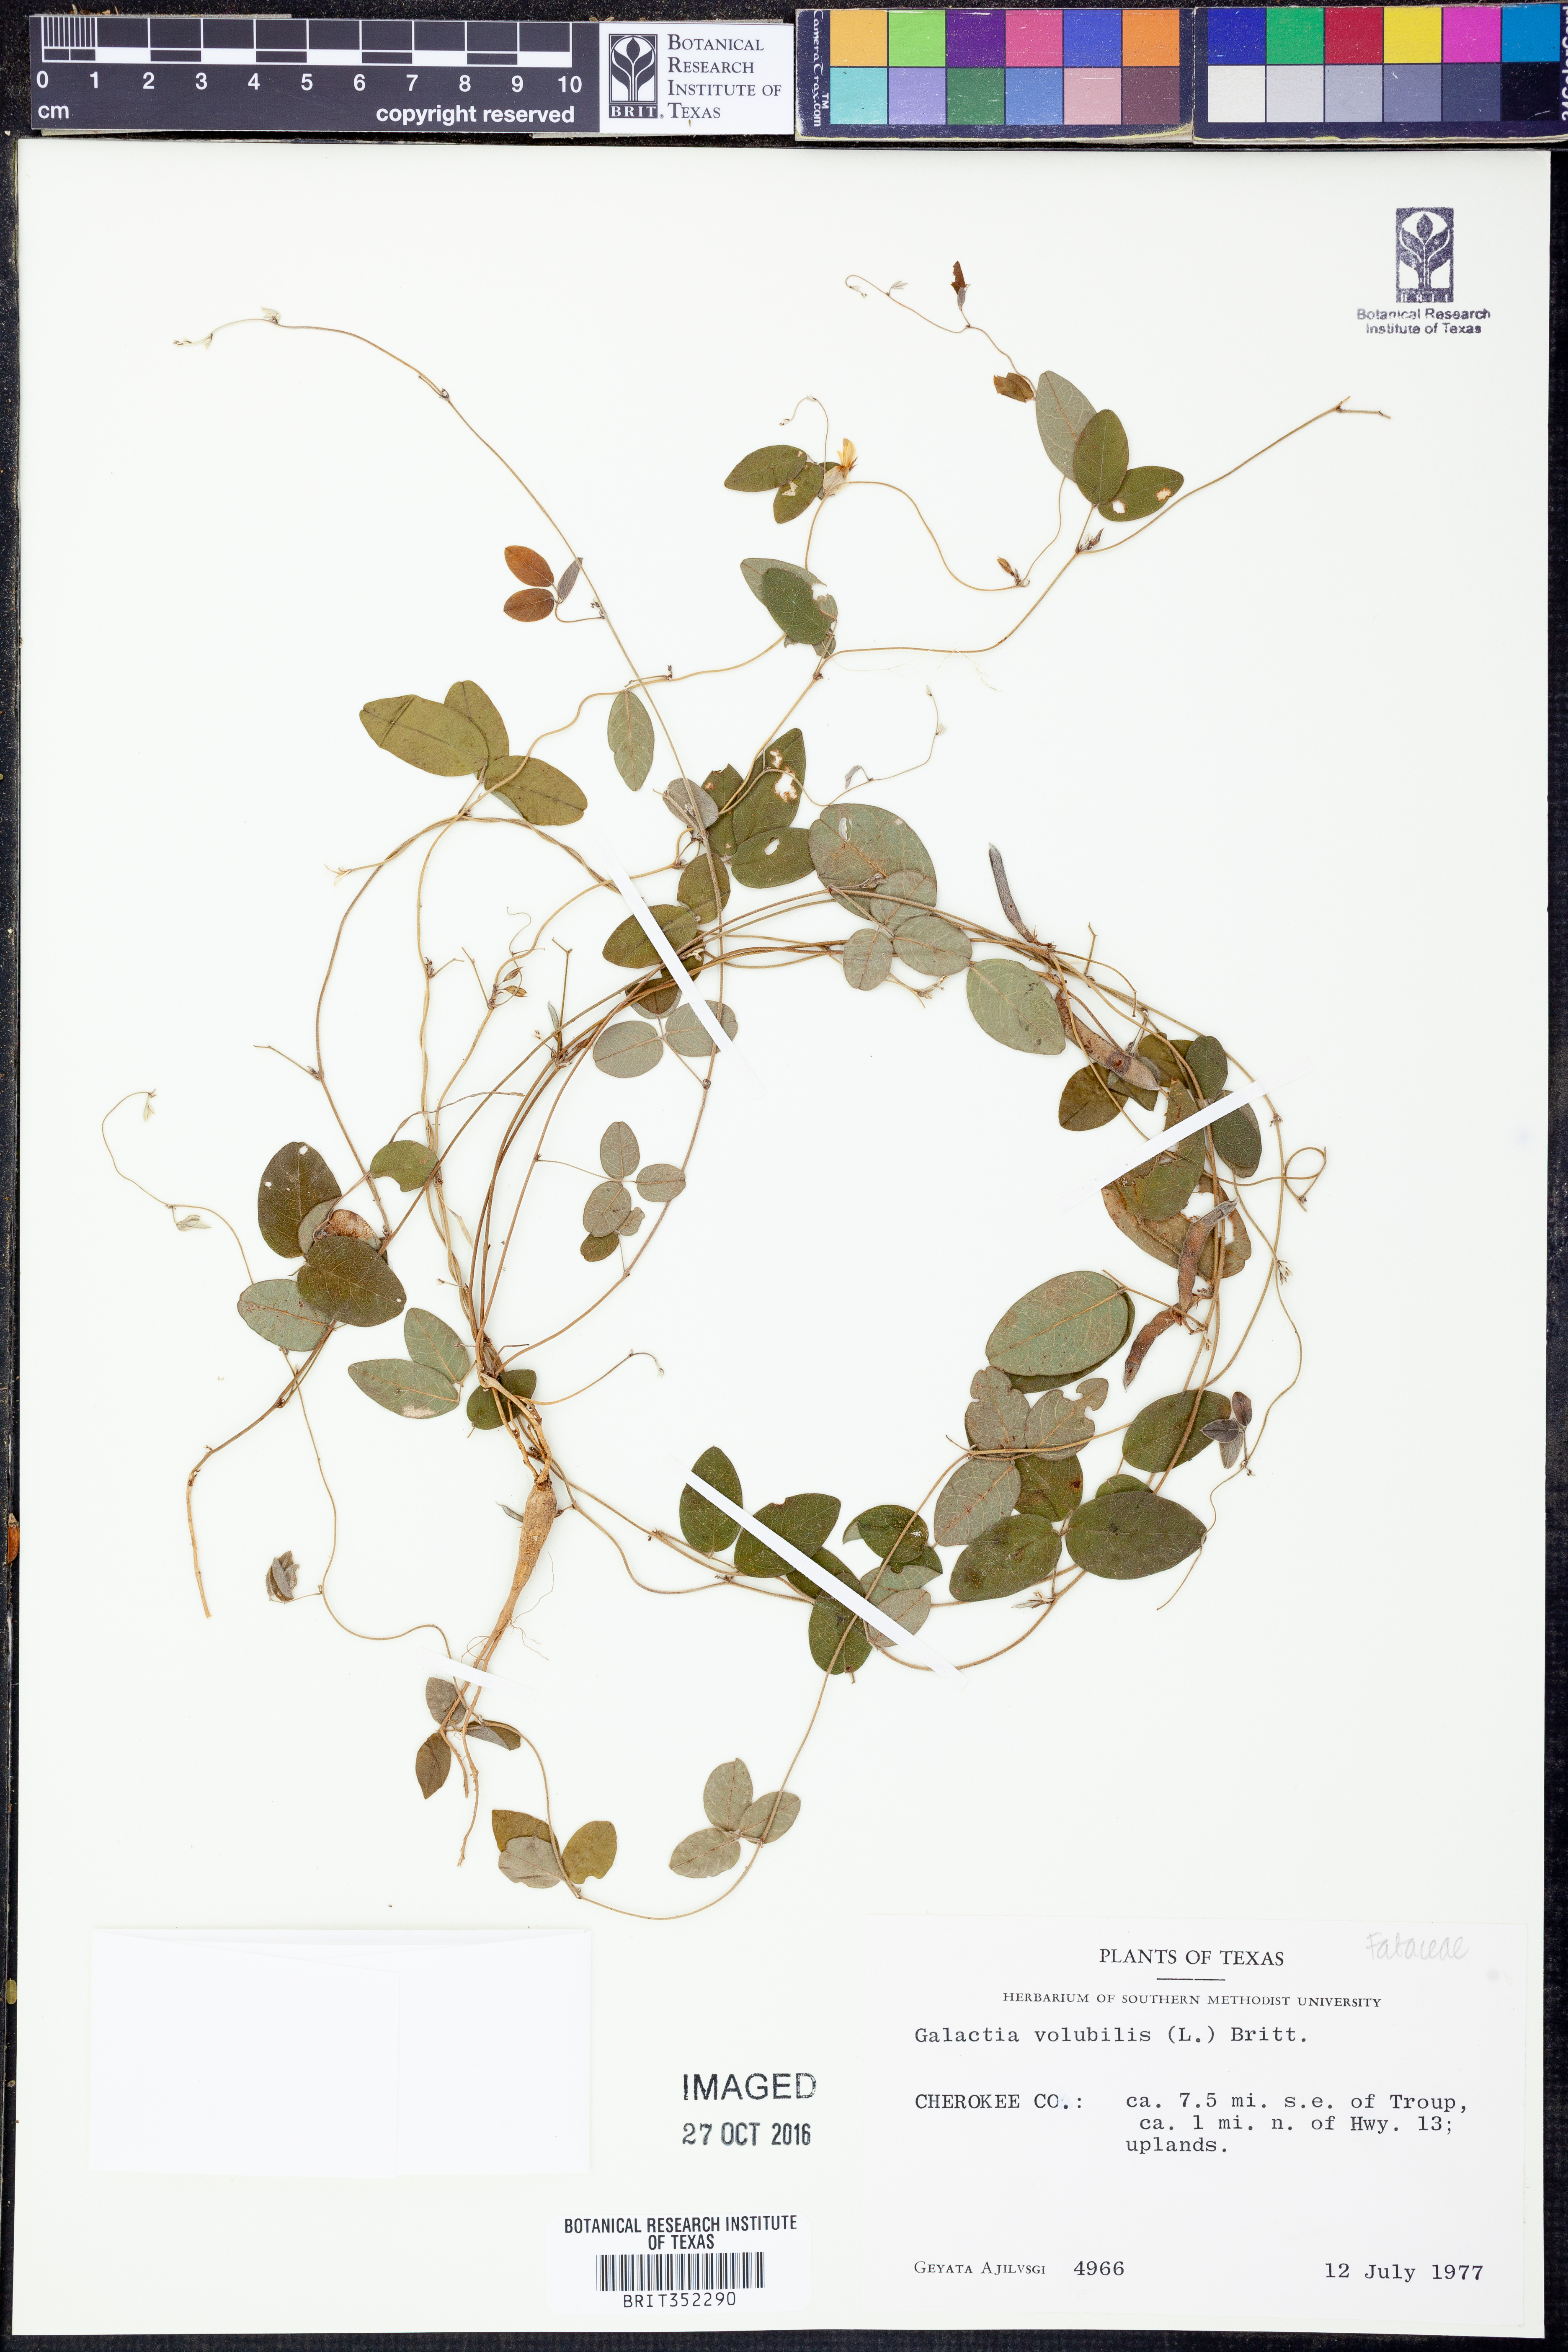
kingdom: Plantae
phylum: Tracheophyta
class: Magnoliopsida
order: Fabales
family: Fabaceae
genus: Galactia
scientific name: Galactia volubilis
